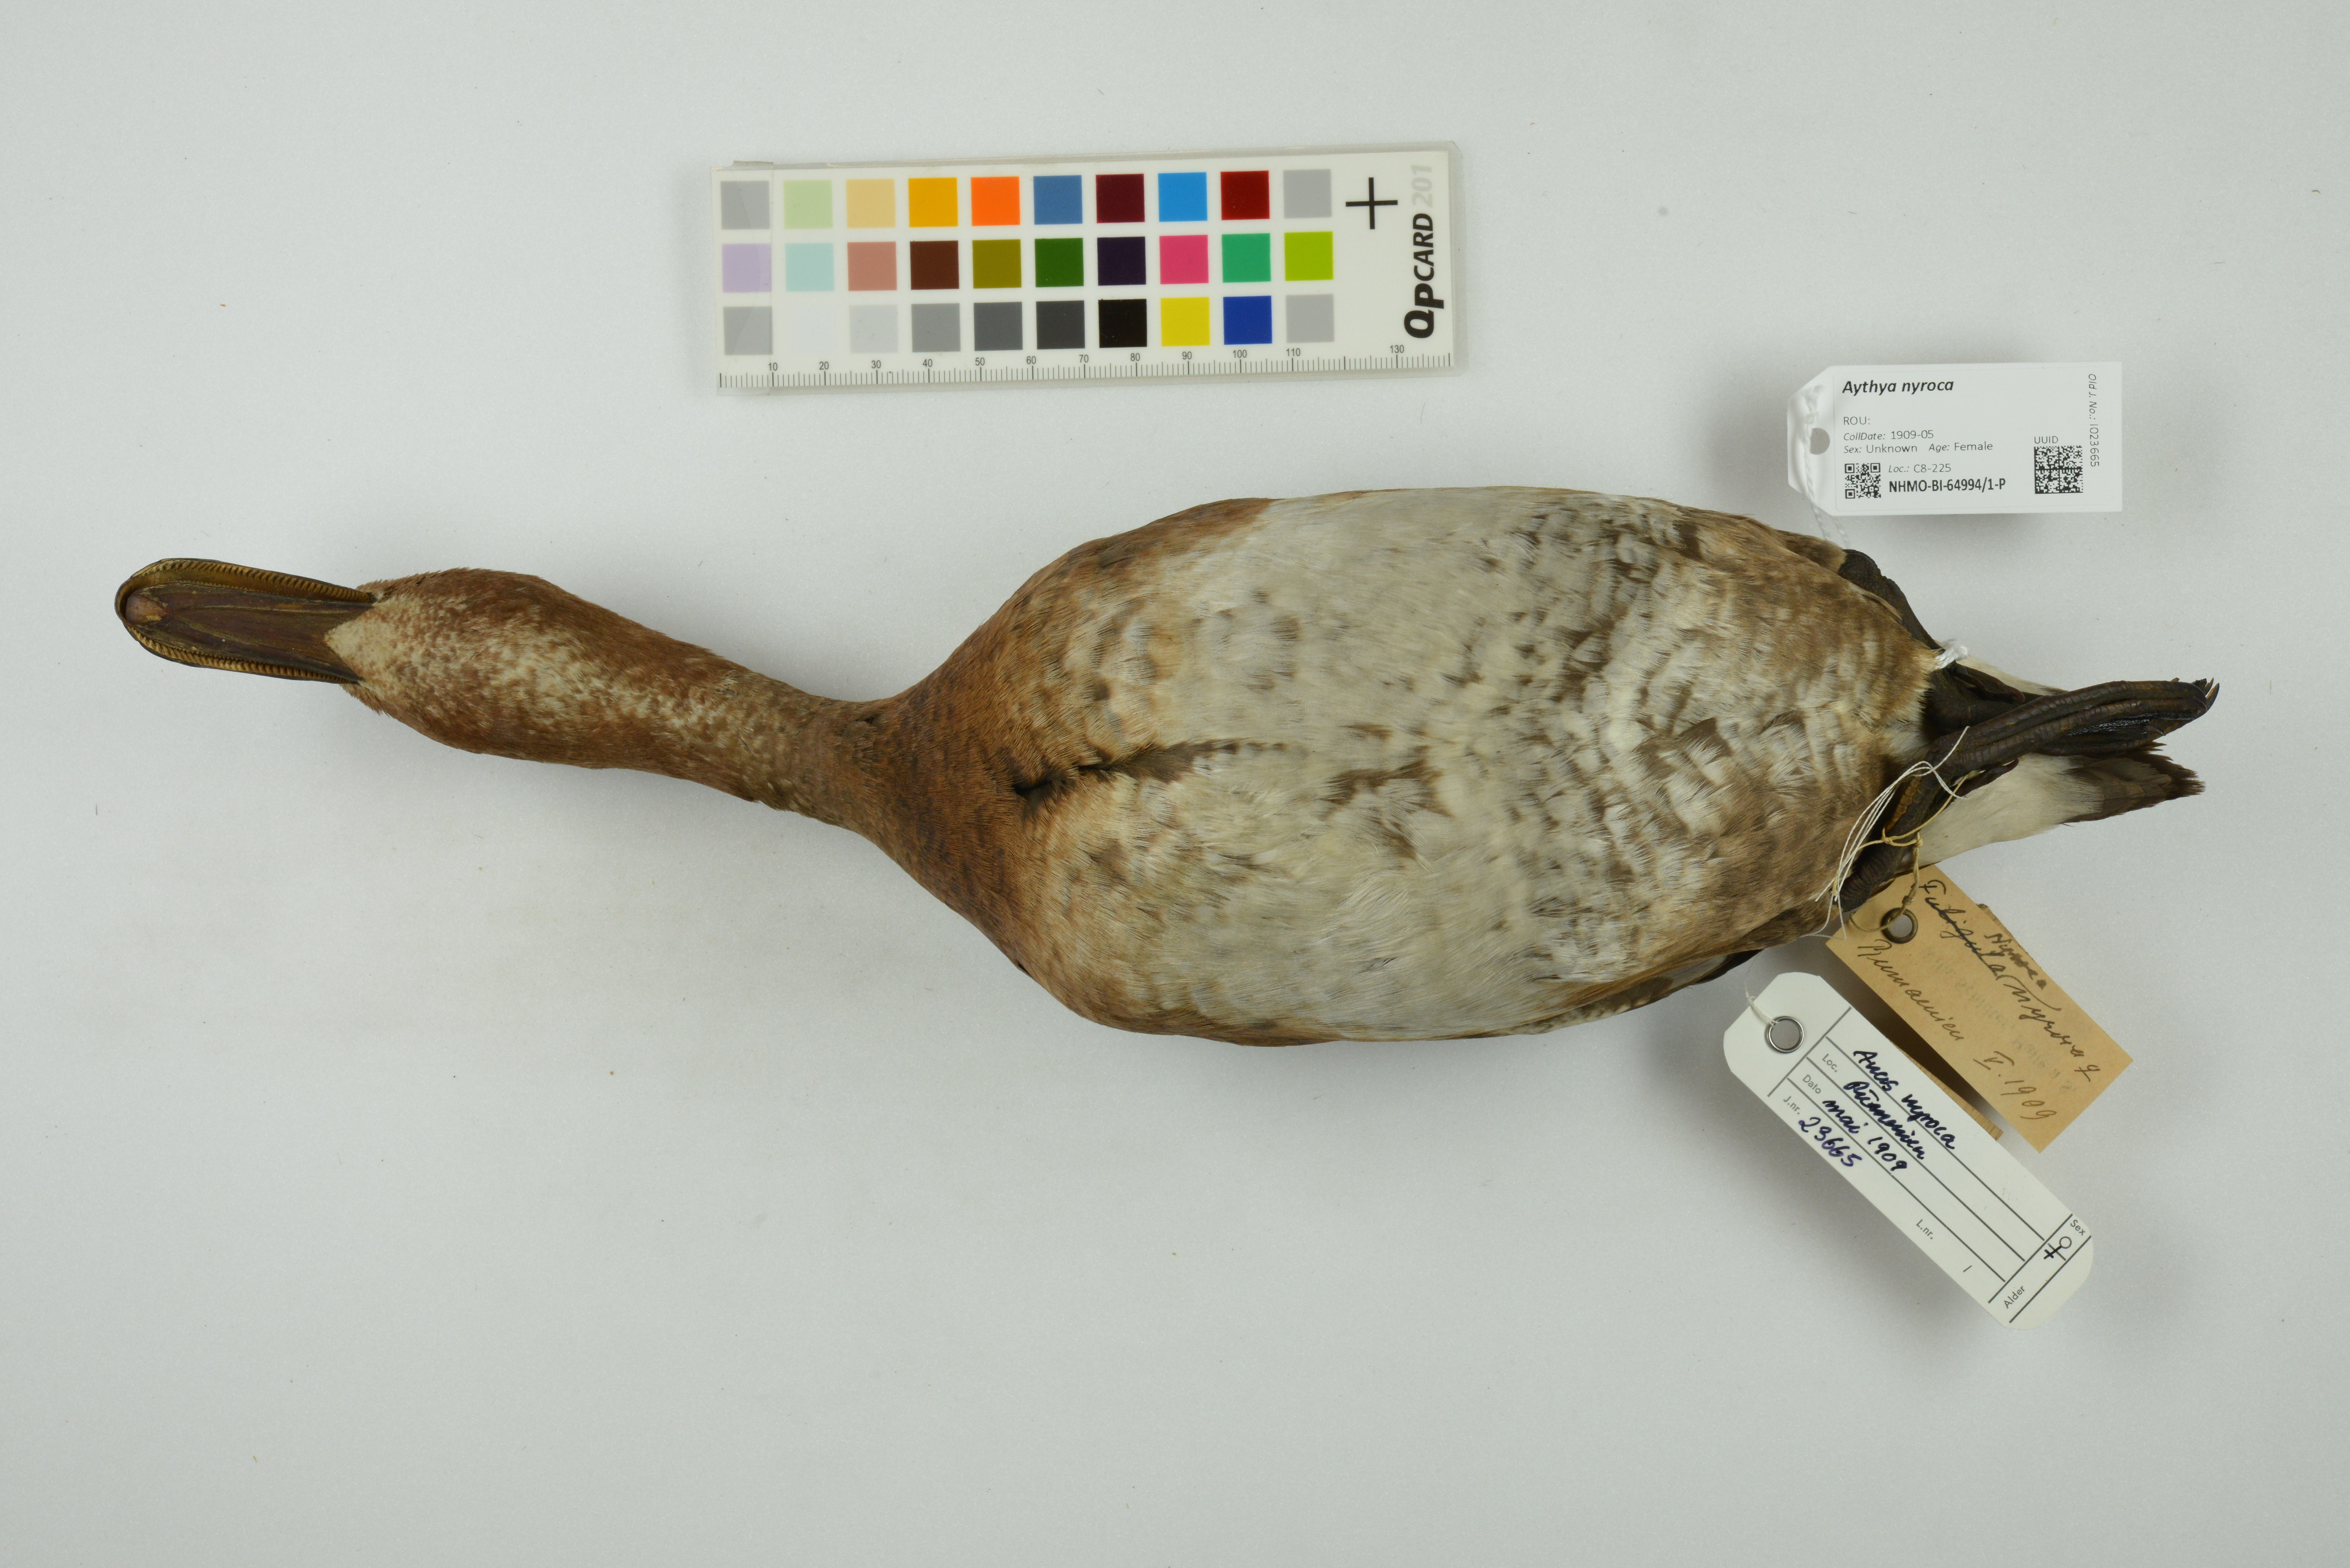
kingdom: Animalia
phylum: Chordata
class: Aves
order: Anseriformes
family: Anatidae
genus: Aythya
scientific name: Aythya nyroca
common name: Ferruginous duck
